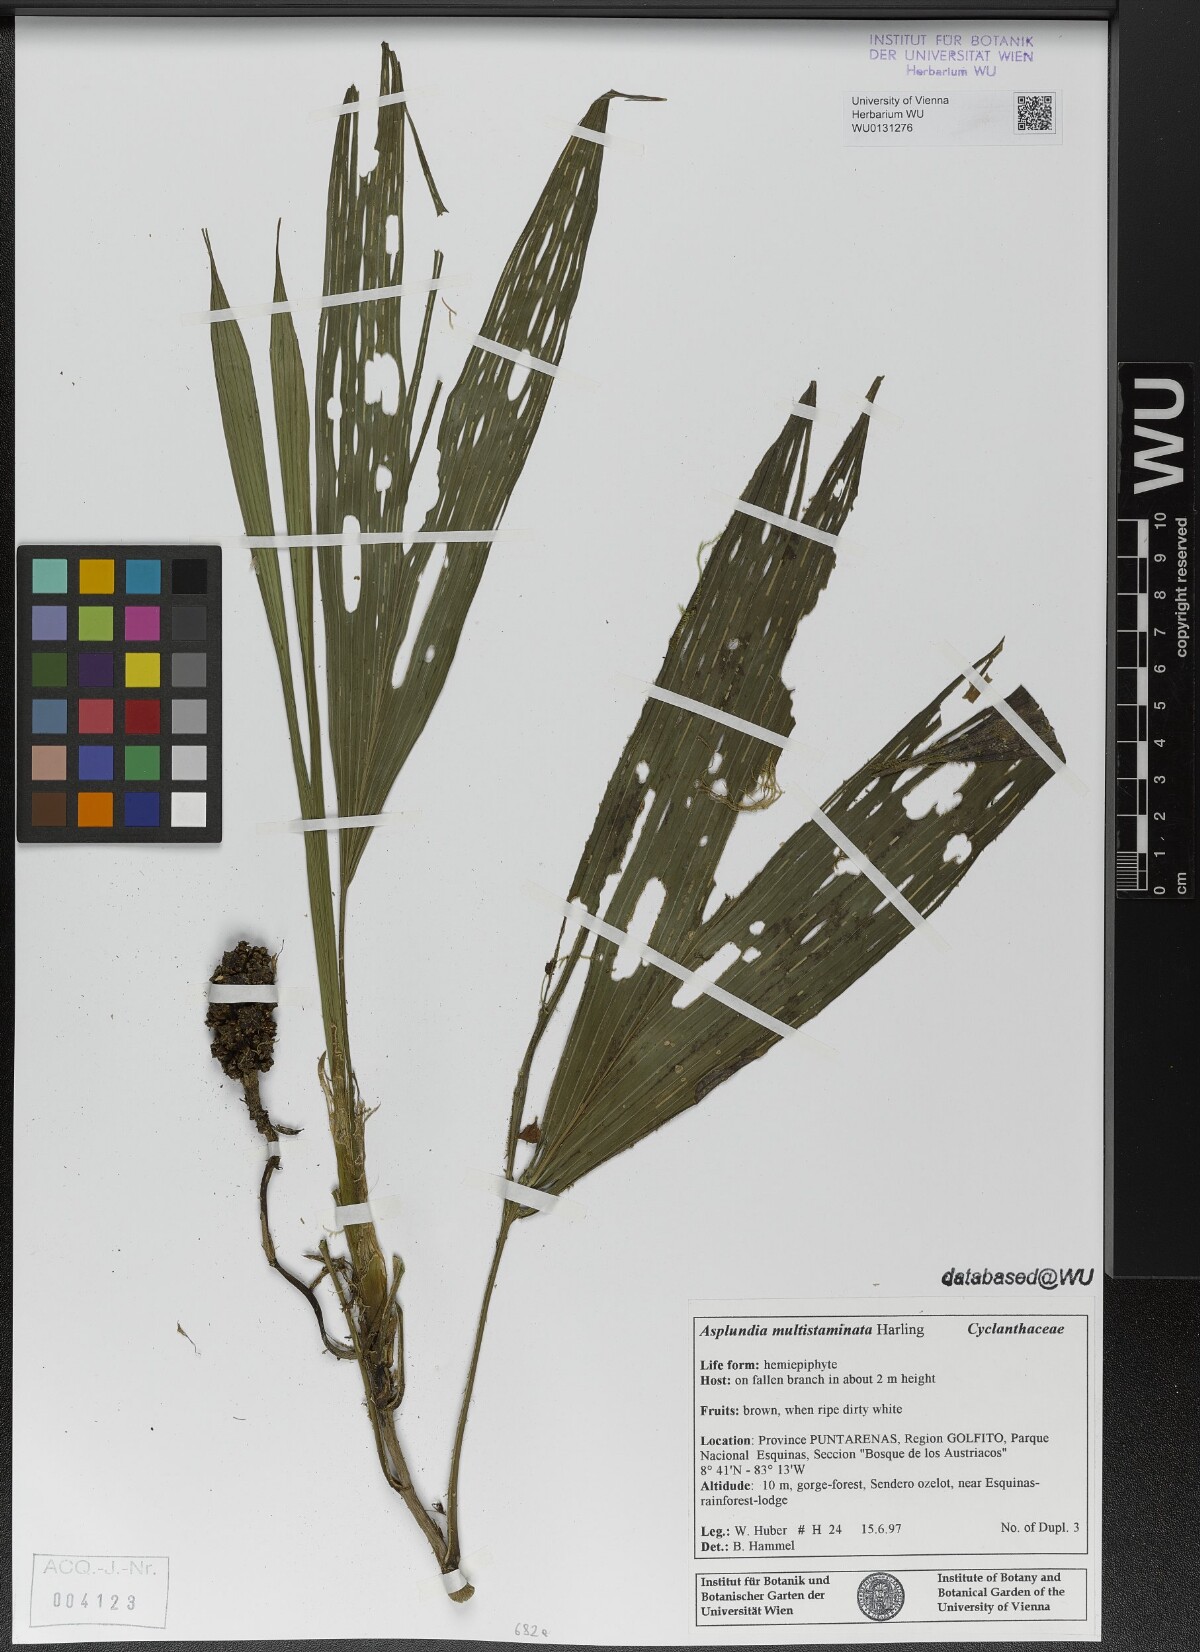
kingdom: Plantae
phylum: Tracheophyta
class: Liliopsida
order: Pandanales
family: Cyclanthaceae
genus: Asplundia
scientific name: Asplundia multistaminata
